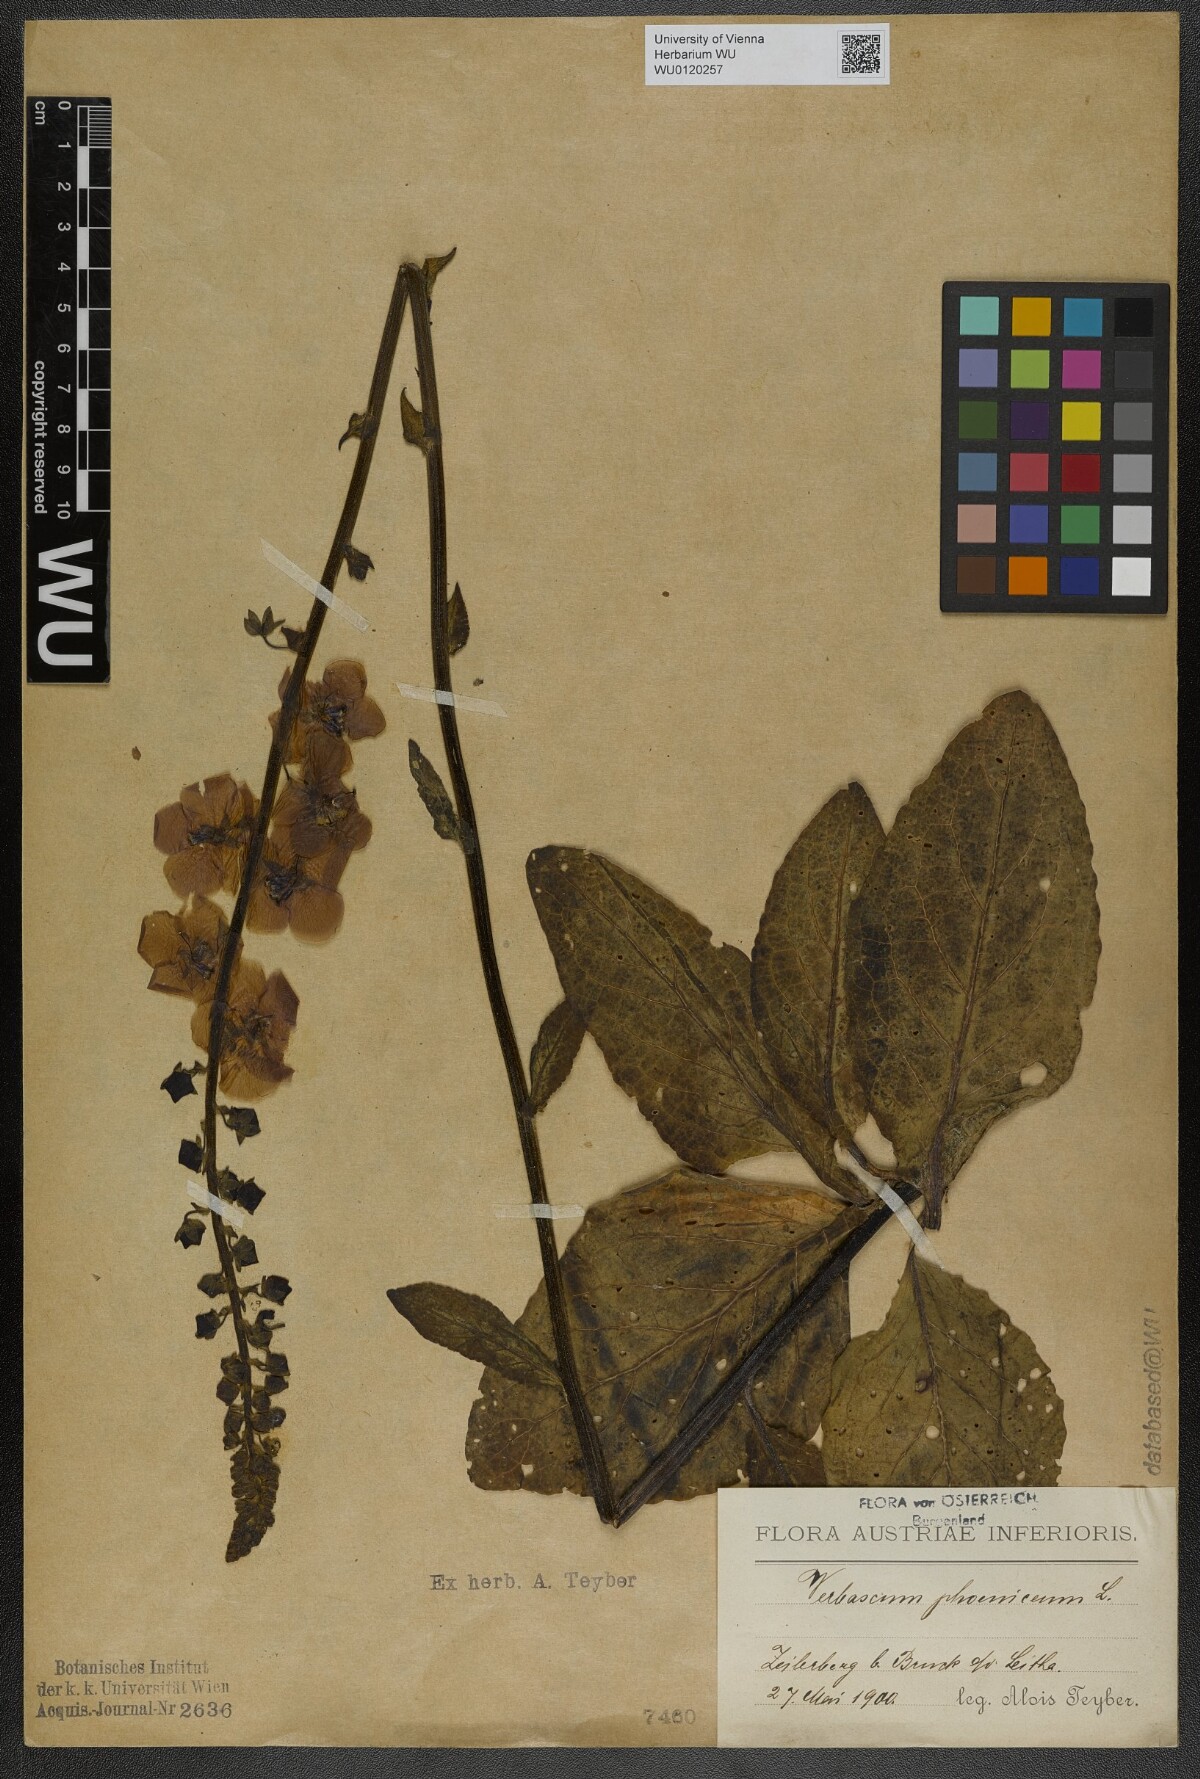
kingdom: Plantae
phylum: Tracheophyta
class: Magnoliopsida
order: Lamiales
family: Scrophulariaceae
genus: Verbascum
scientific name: Verbascum phoeniceum
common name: Purple mullein
